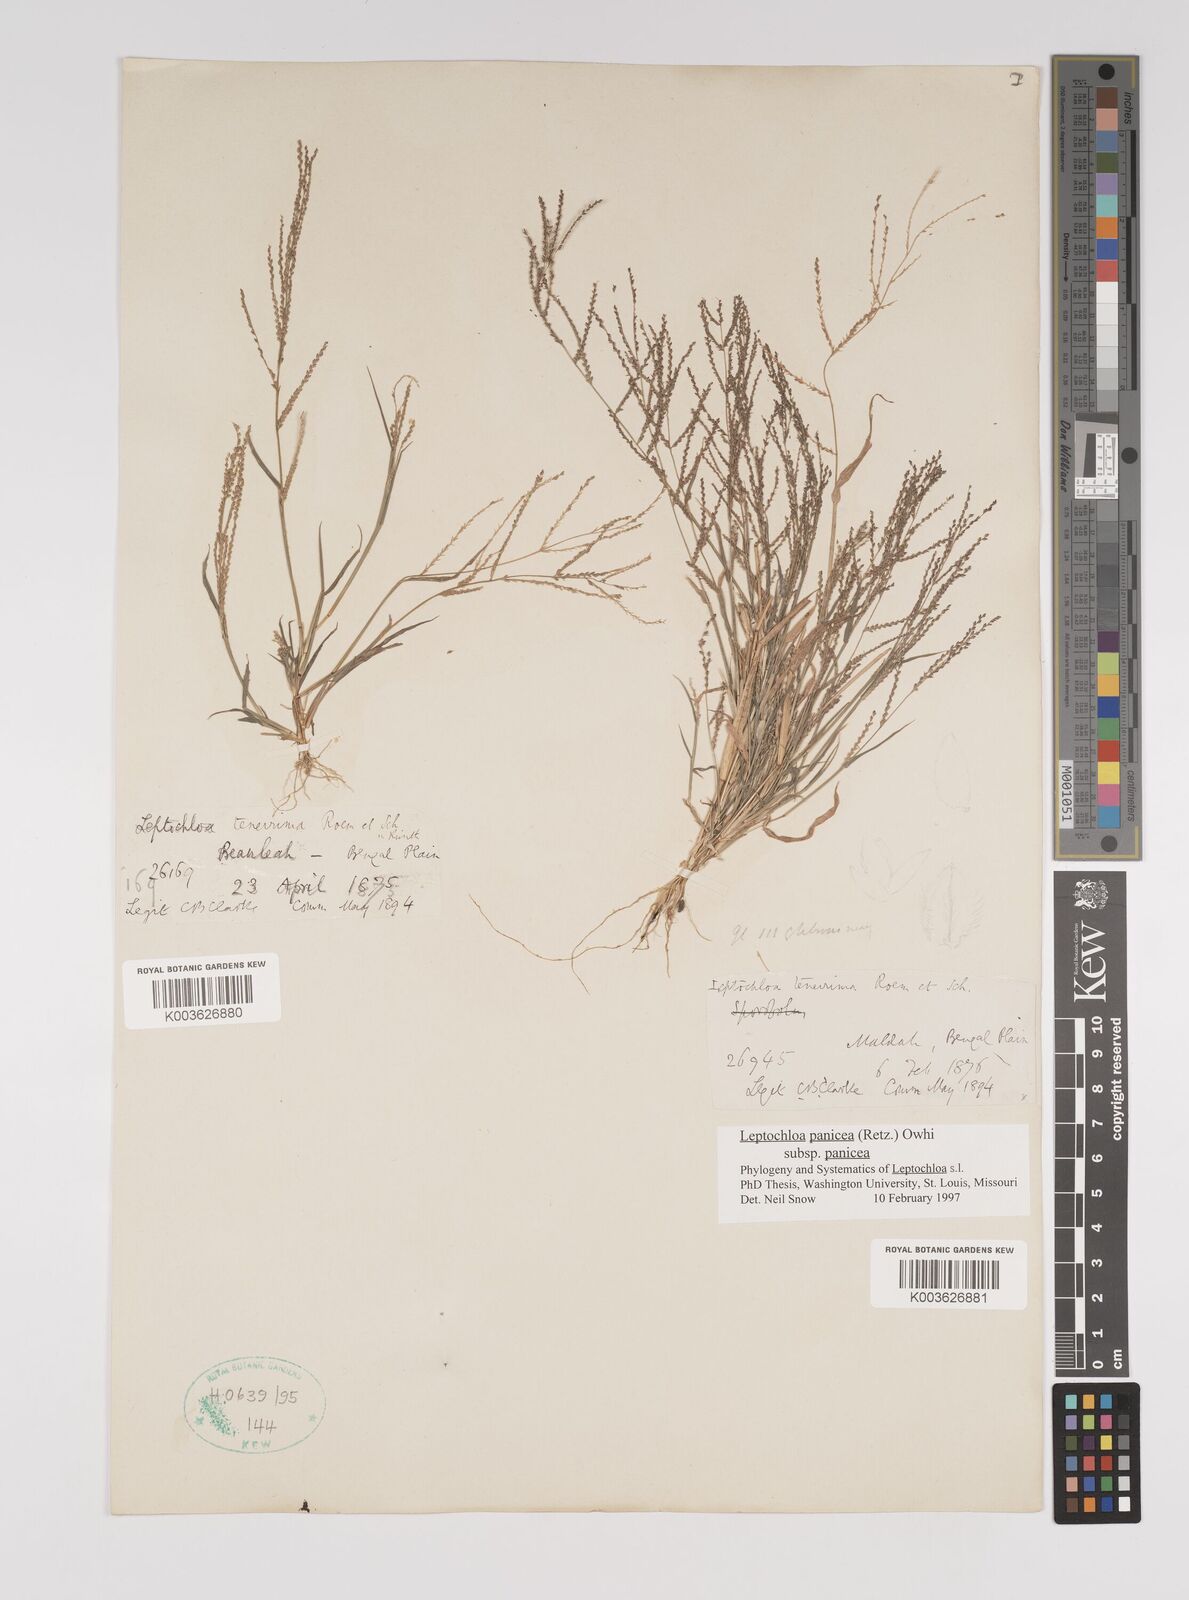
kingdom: Plantae
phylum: Tracheophyta
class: Liliopsida
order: Poales
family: Poaceae
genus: Leptochloa
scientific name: Leptochloa panicea
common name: Mucronate sprangletop
